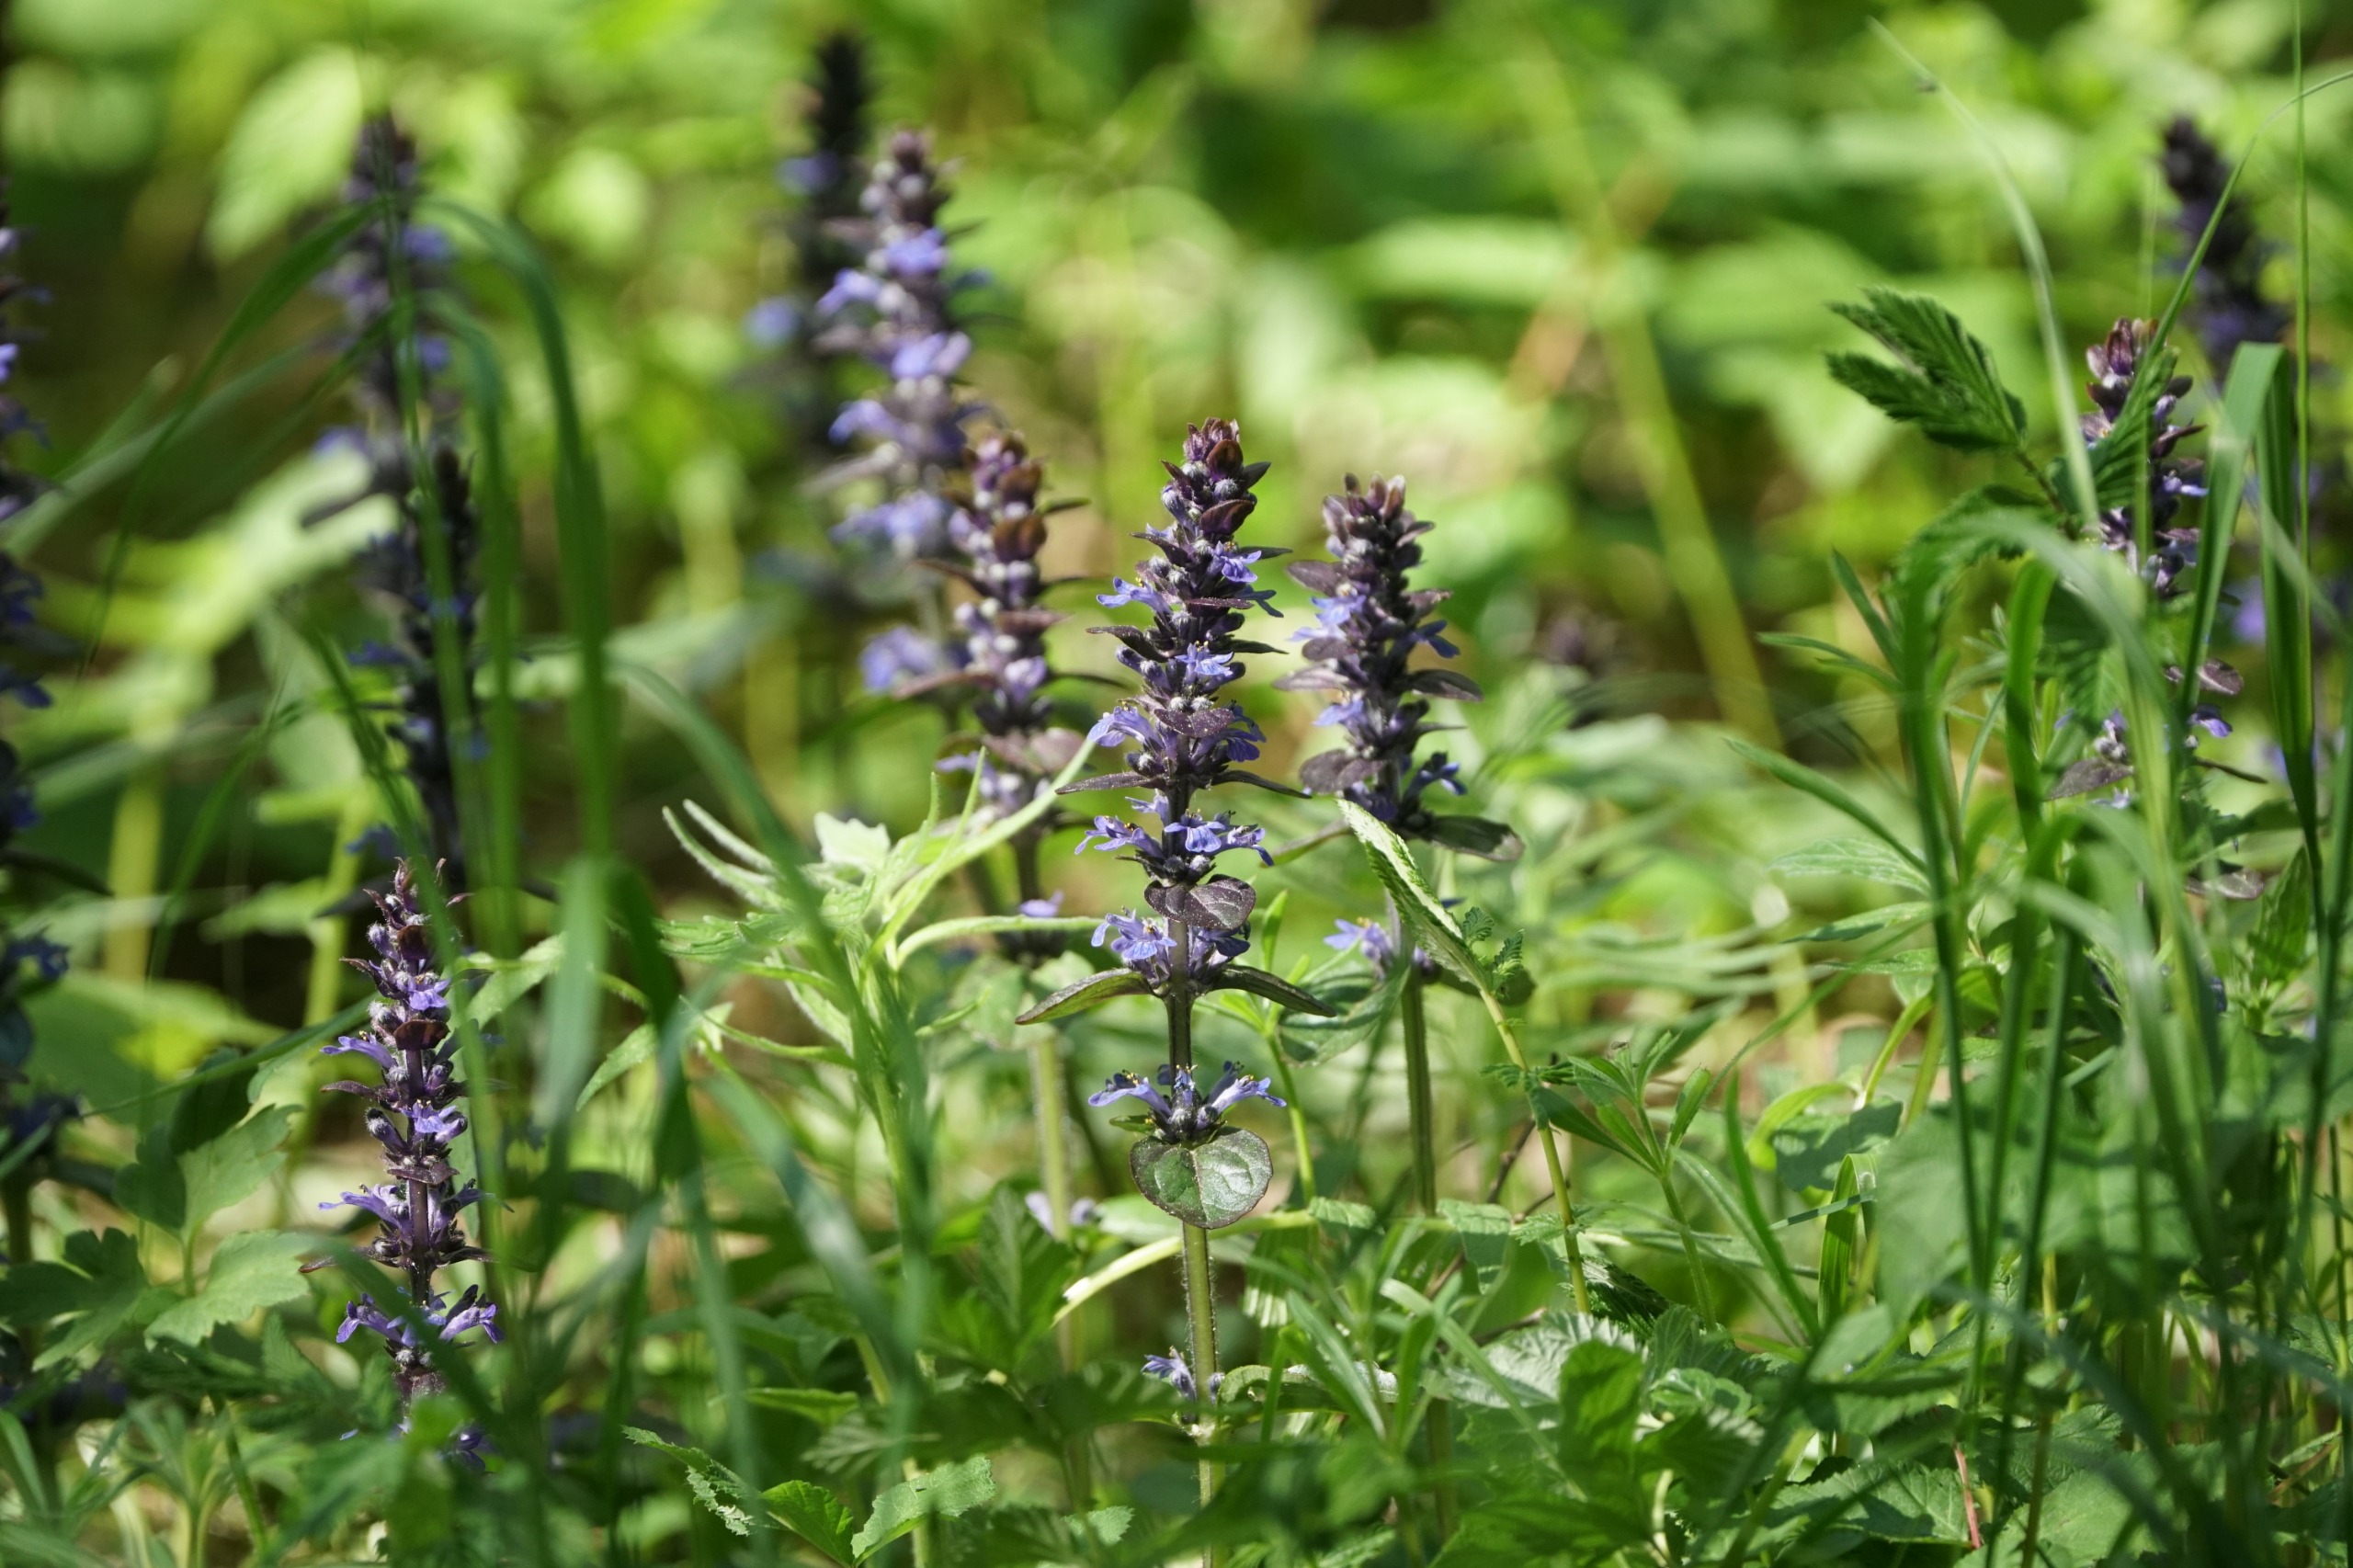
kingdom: Plantae
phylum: Tracheophyta
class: Magnoliopsida
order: Lamiales
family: Lamiaceae
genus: Ajuga
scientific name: Ajuga reptans
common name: Krybende læbeløs
